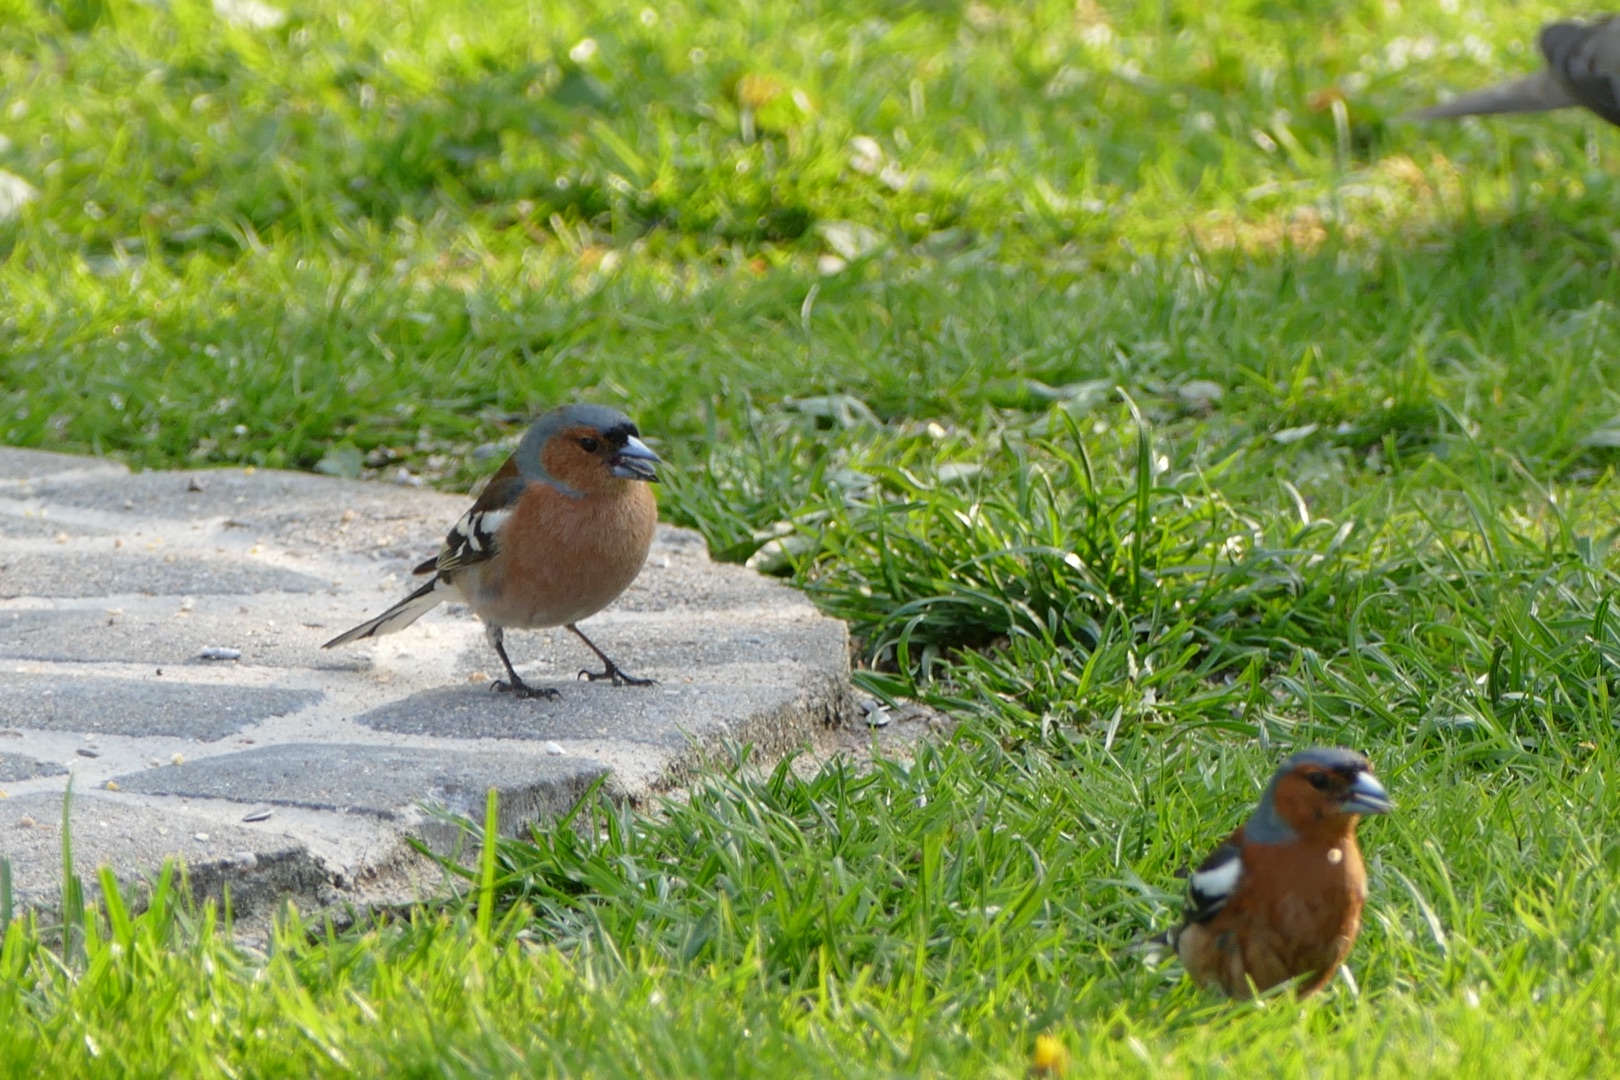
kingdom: Animalia
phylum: Chordata
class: Aves
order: Passeriformes
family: Fringillidae
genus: Fringilla
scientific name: Fringilla coelebs
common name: Bogfinke
